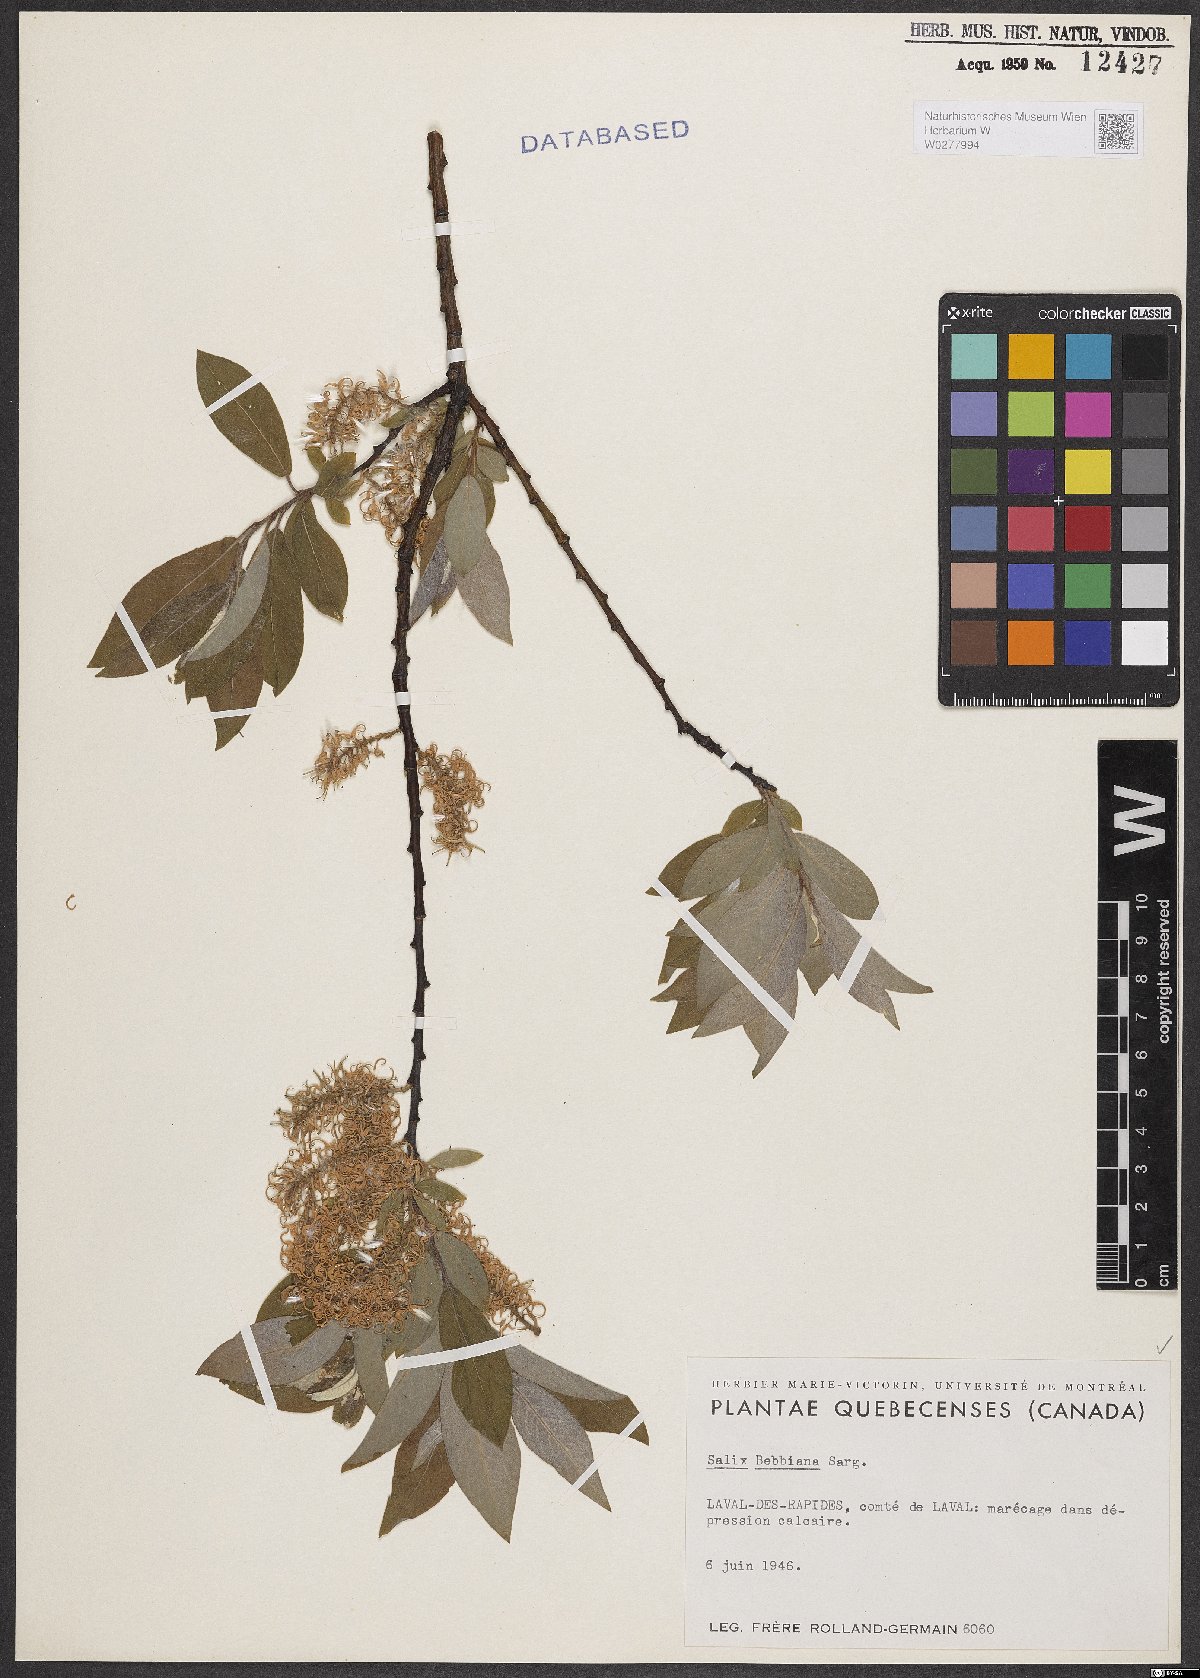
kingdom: Plantae
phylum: Tracheophyta
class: Magnoliopsida
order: Malpighiales
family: Salicaceae
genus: Salix
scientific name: Salix bebbiana
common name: Bebb's willow
